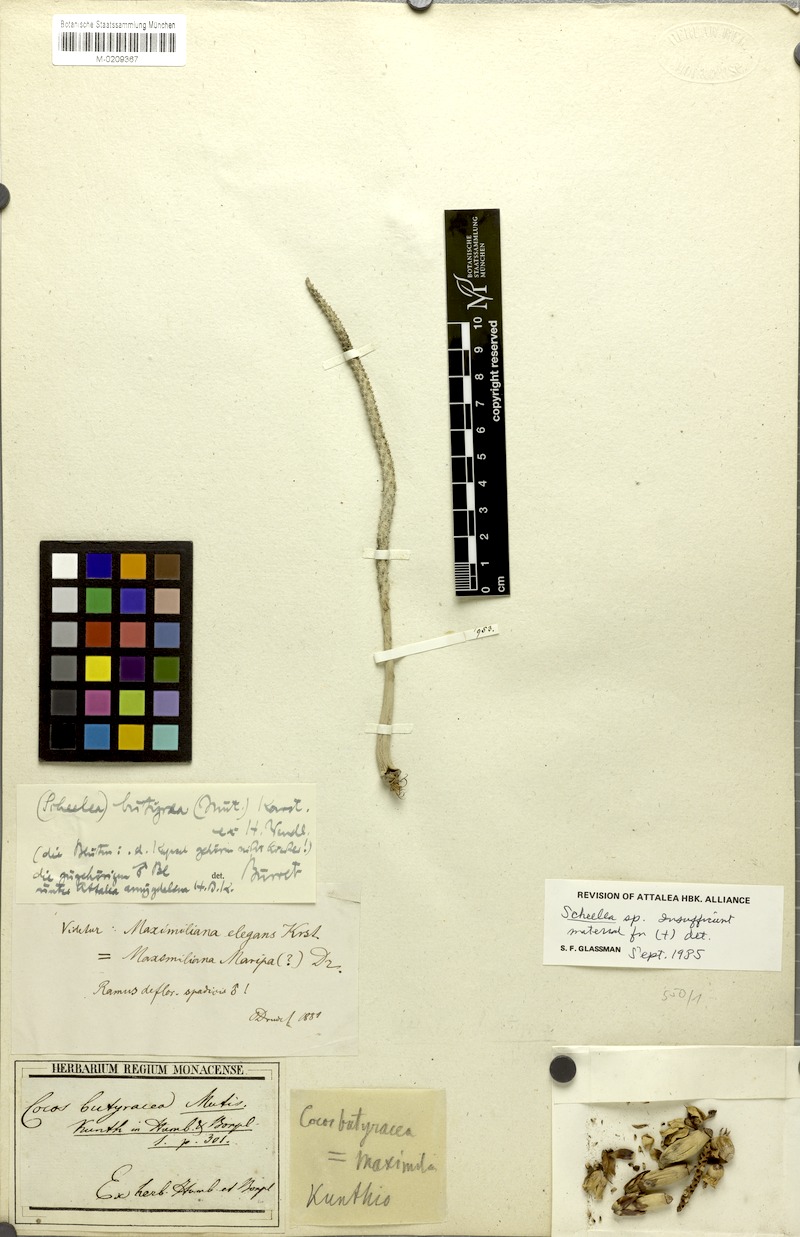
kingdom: Plantae
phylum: Tracheophyta
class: Liliopsida
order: Arecales
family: Arecaceae
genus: Attalea
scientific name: Attalea
